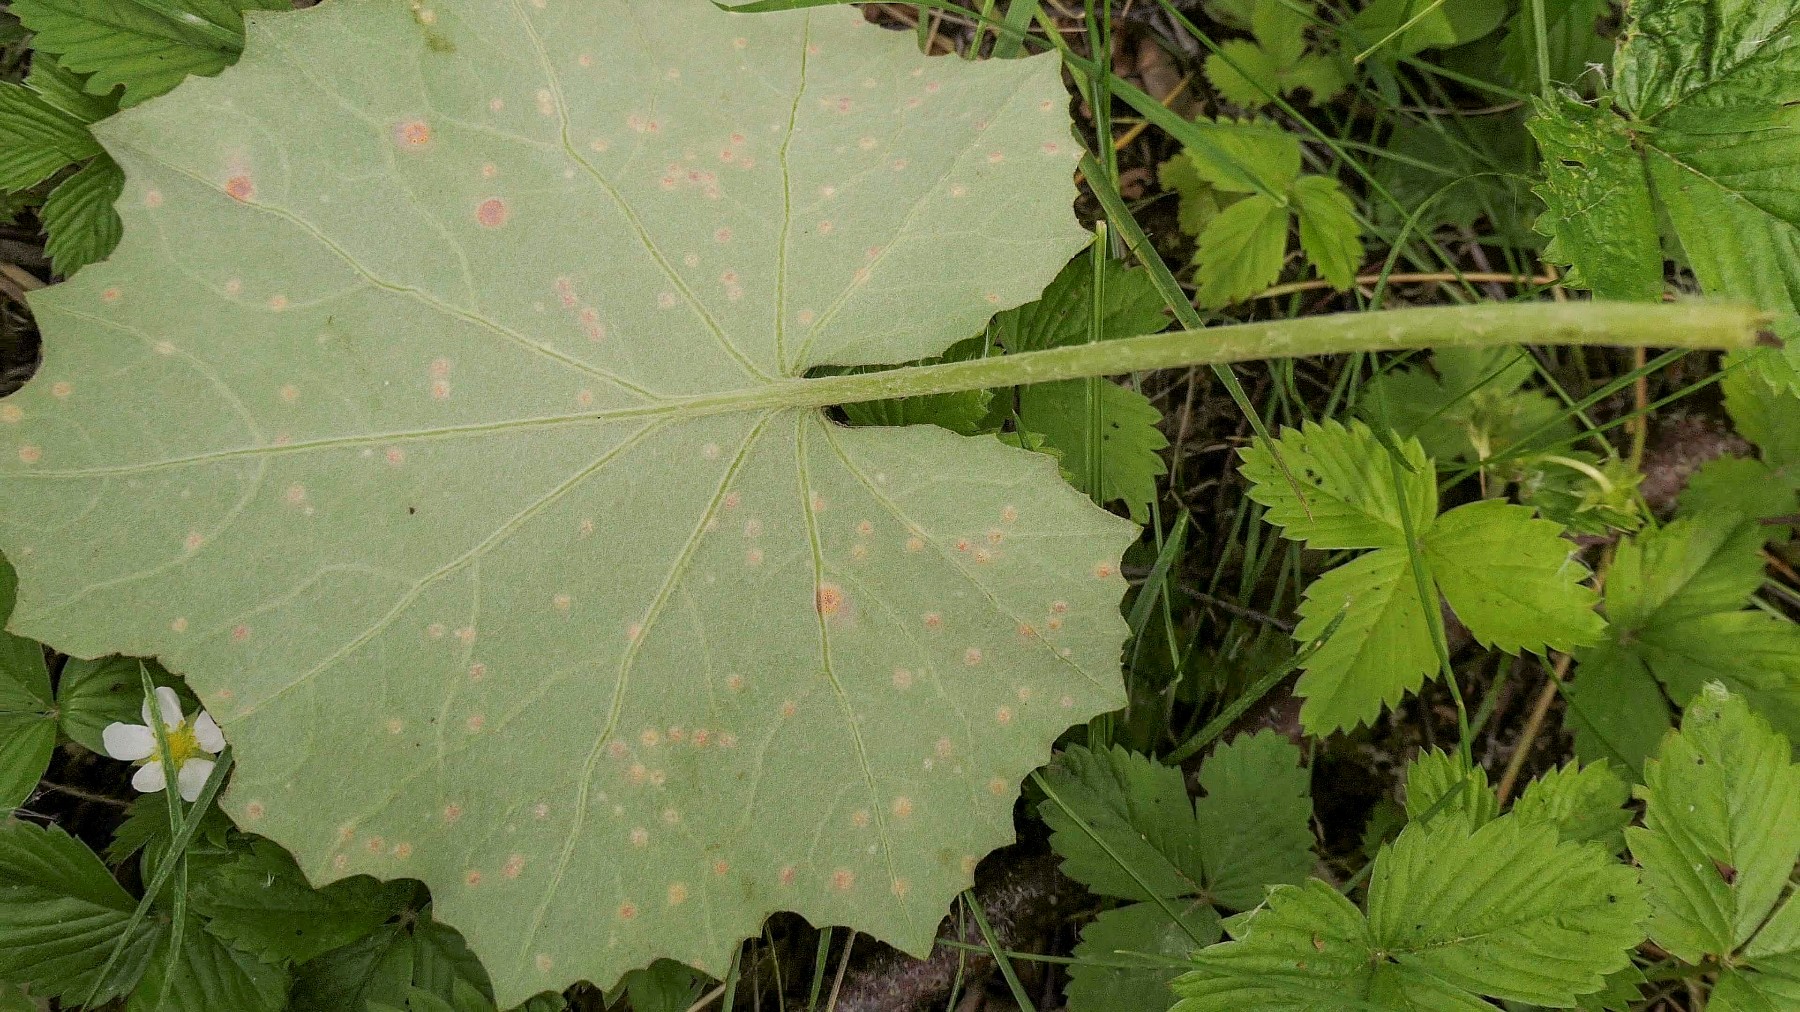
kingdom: Fungi
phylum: Basidiomycota
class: Pucciniomycetes
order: Pucciniales
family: Pucciniaceae
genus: Puccinia
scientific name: Puccinia poarum
